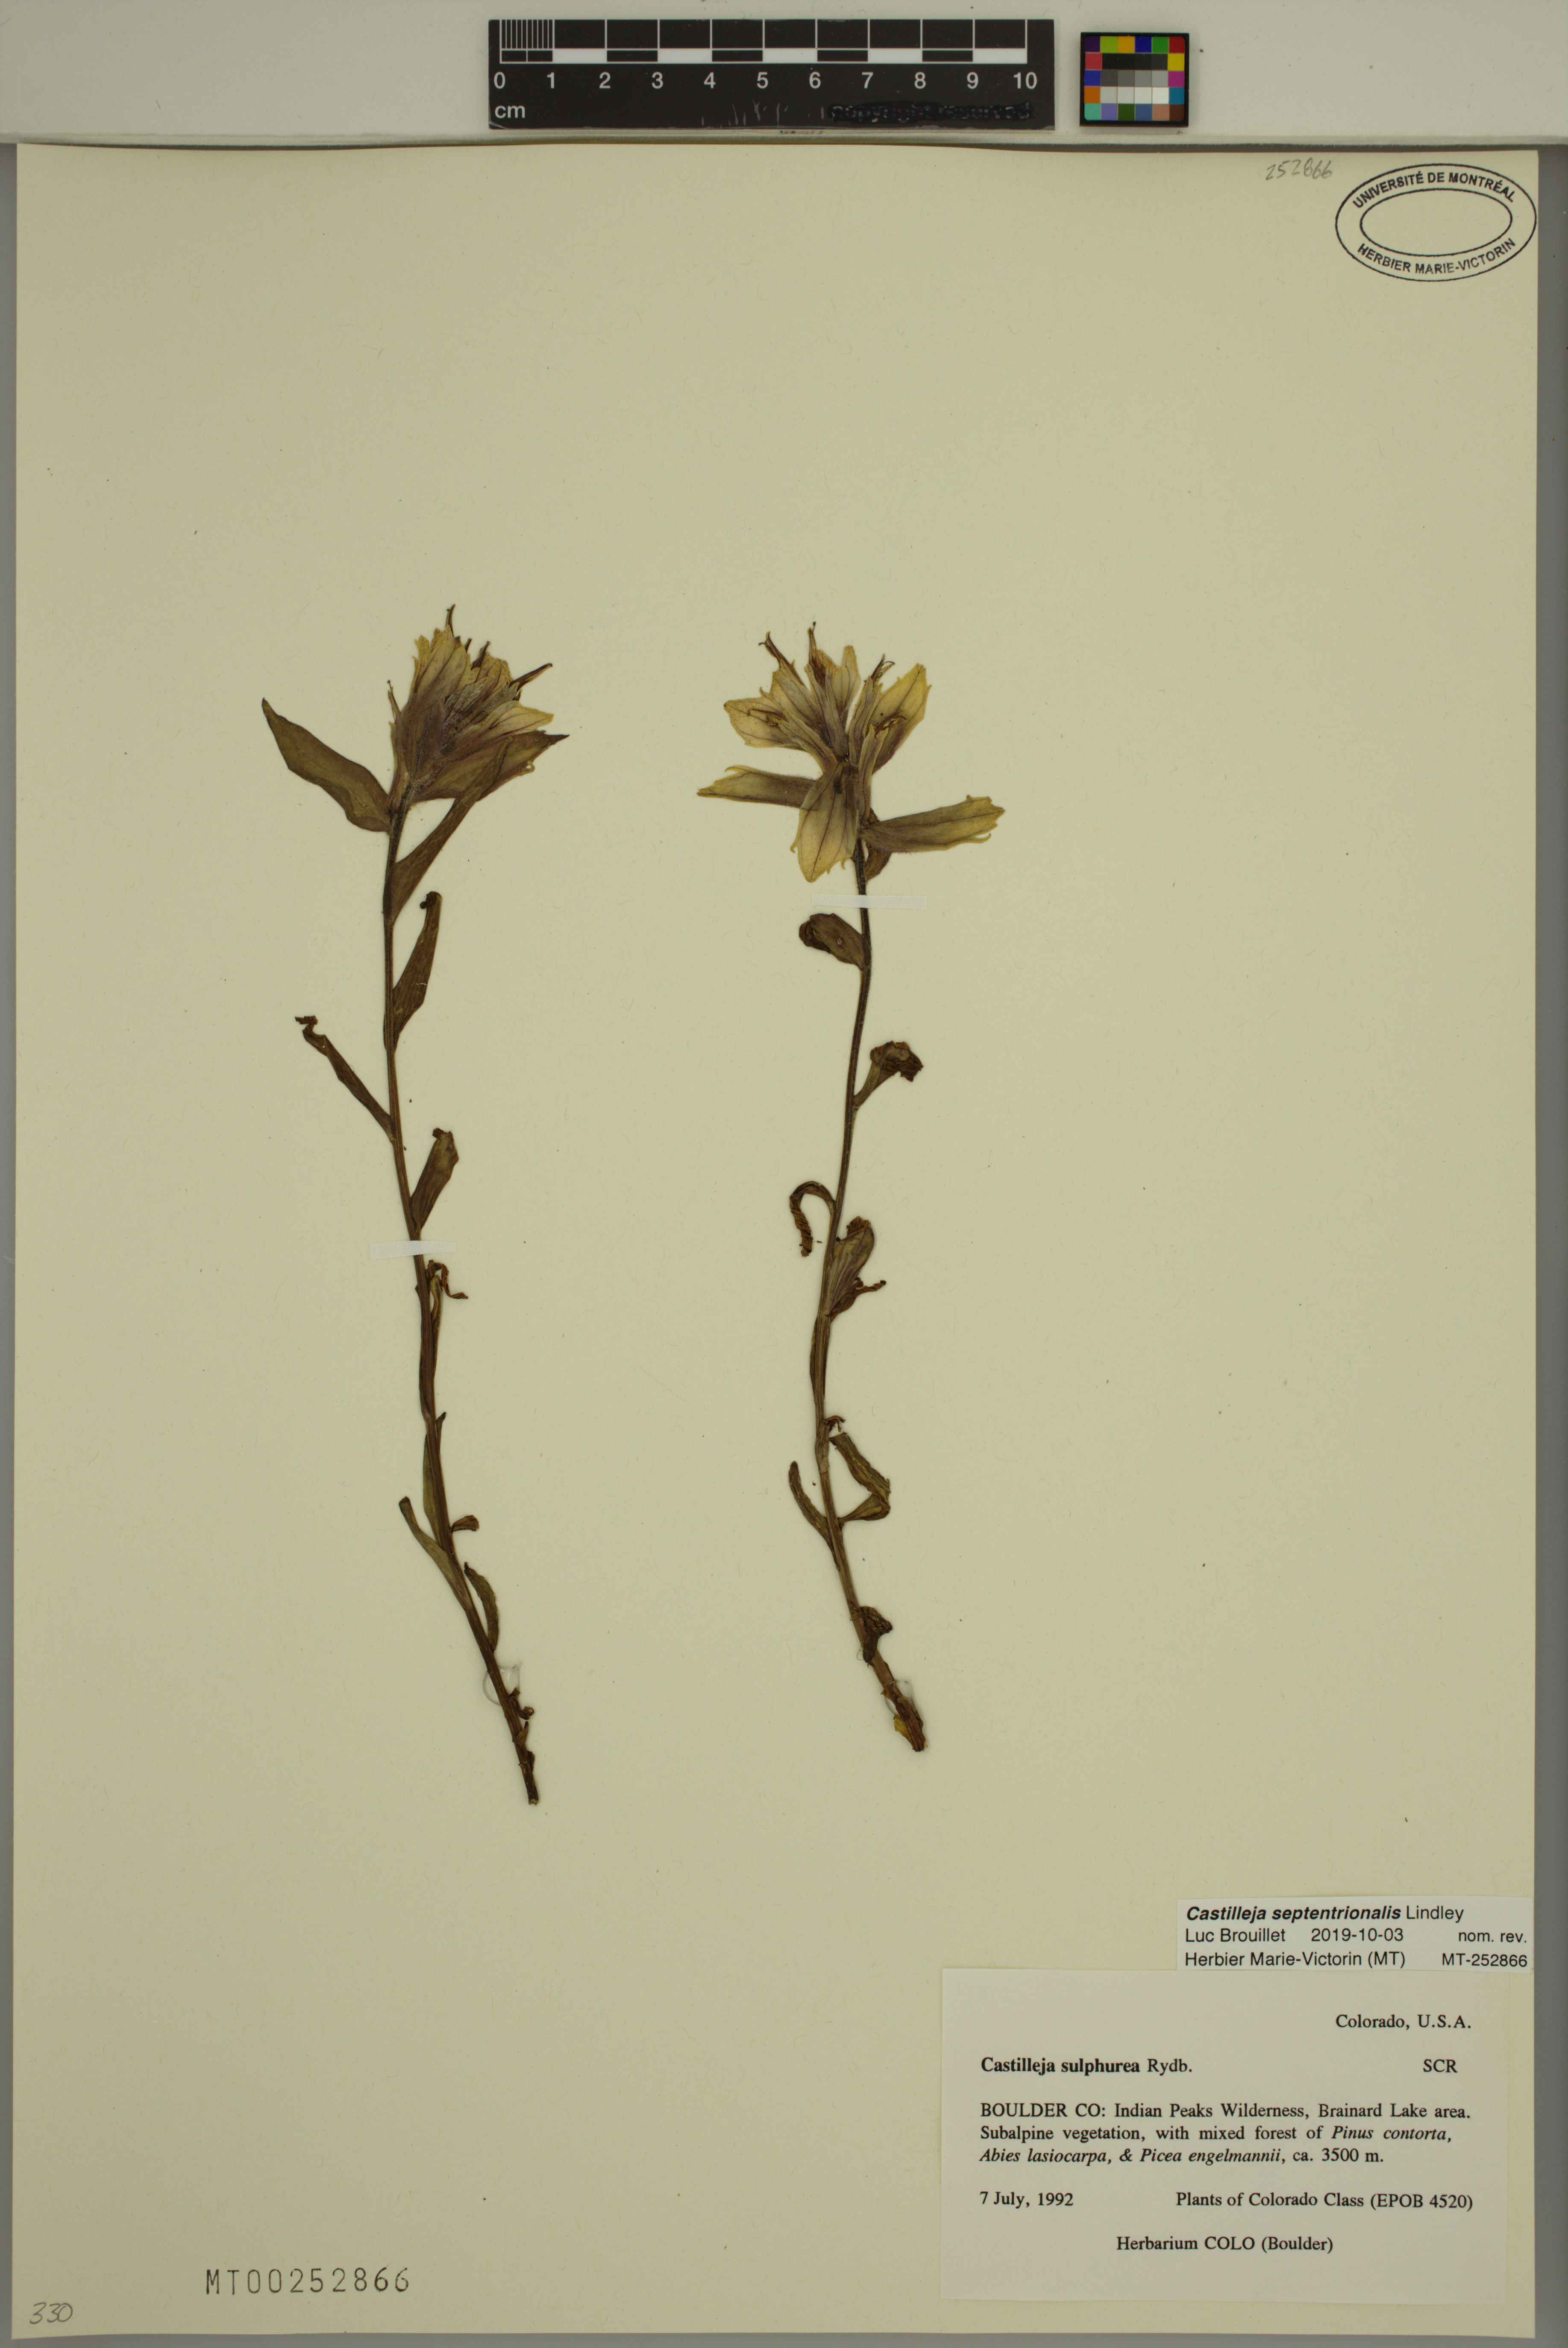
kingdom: Plantae
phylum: Tracheophyta
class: Magnoliopsida
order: Lamiales
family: Orobanchaceae
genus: Castilleja
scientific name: Castilleja septentrionalis
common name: Northeastern paintbrush
